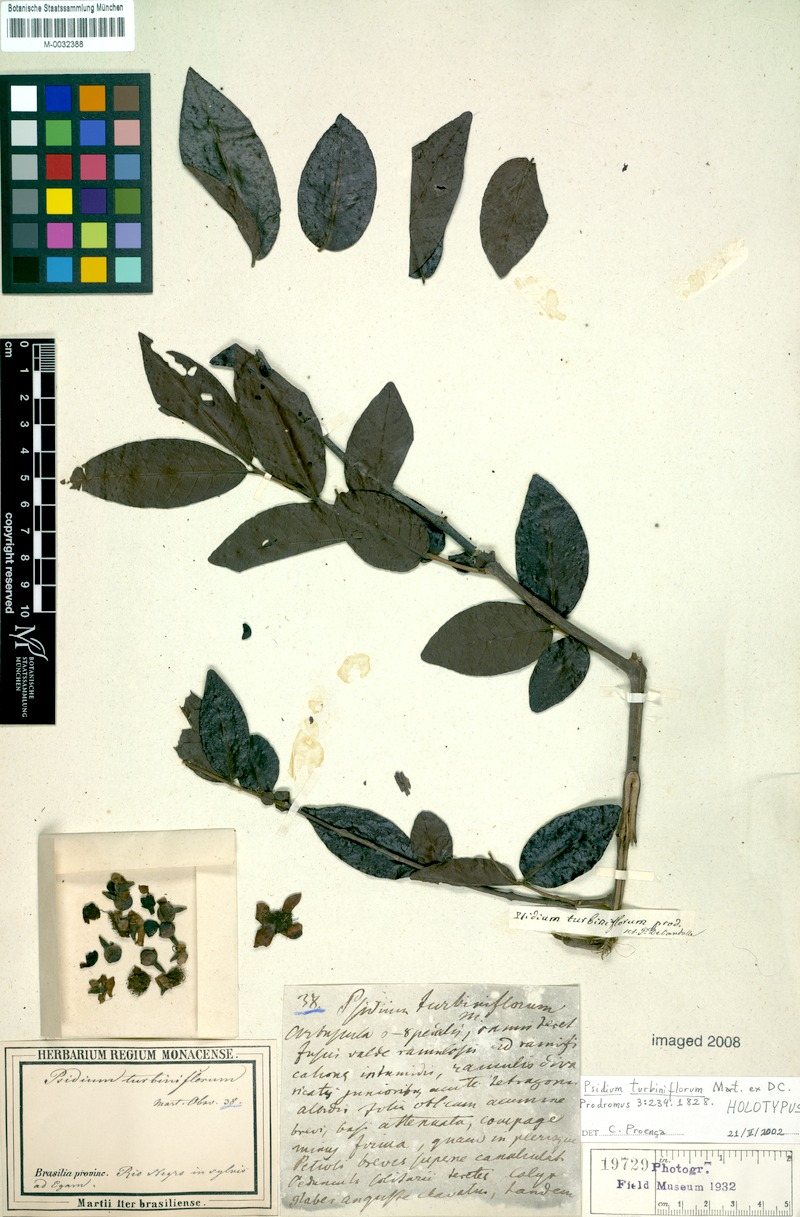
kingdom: Plantae
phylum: Tracheophyta
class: Magnoliopsida
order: Myrtales
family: Myrtaceae
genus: Psidium
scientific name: Psidium striatulum
